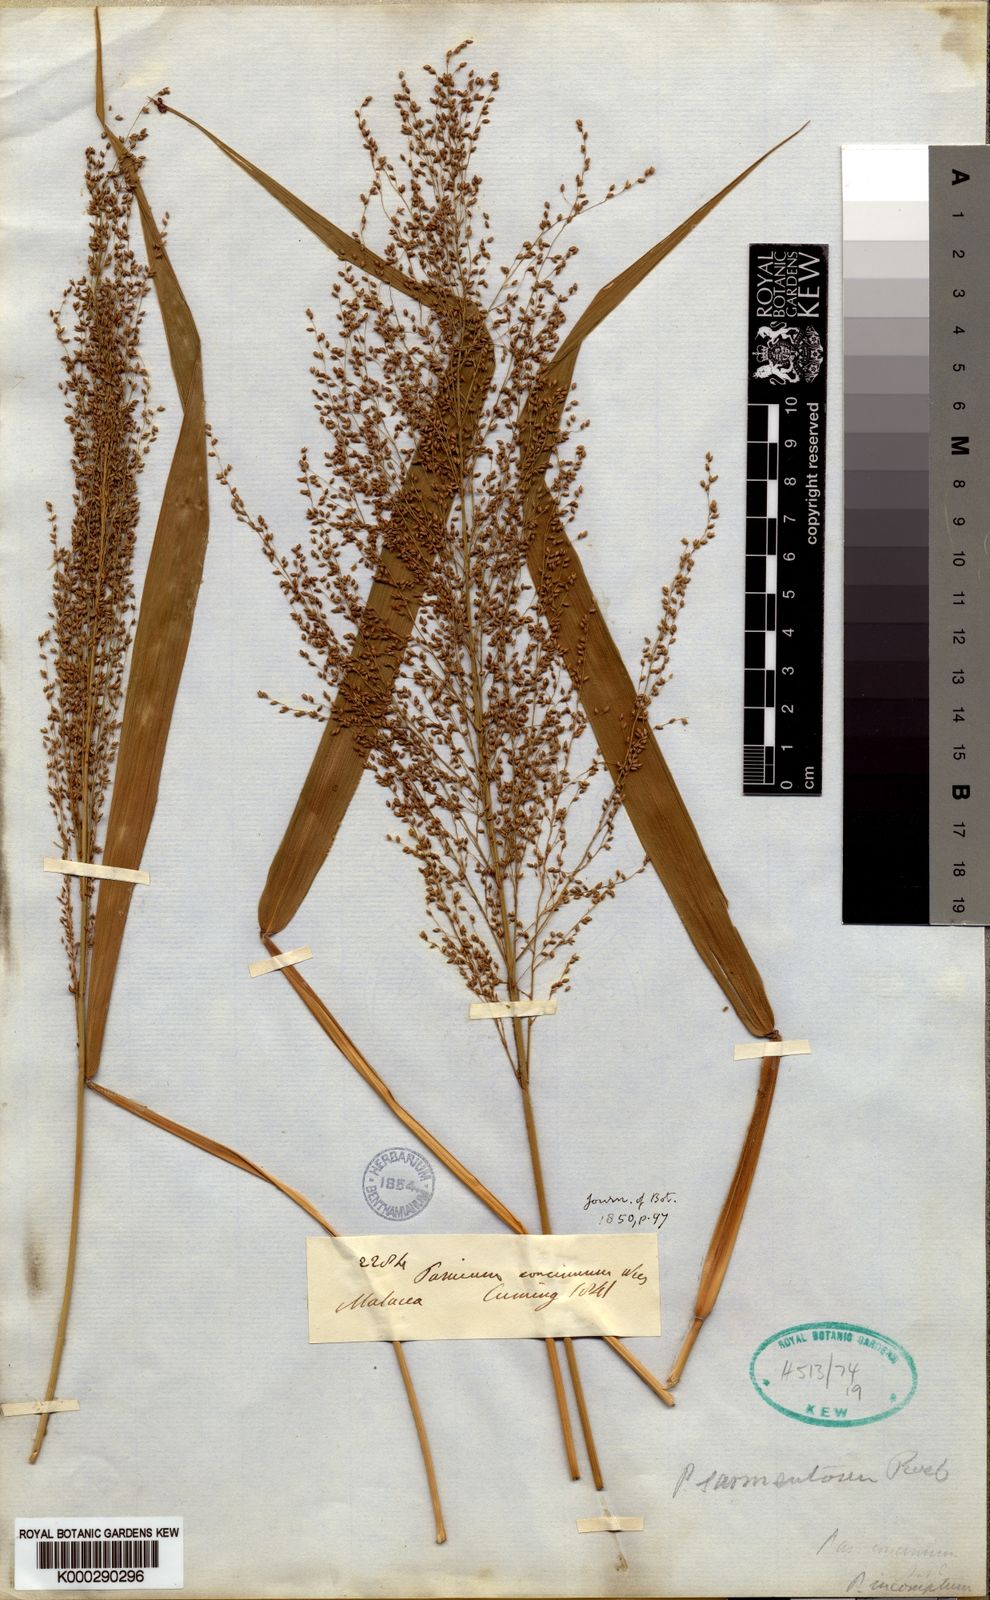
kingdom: Plantae
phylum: Tracheophyta
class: Liliopsida
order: Poales
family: Poaceae
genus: Panicum
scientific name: Panicum sarmentosum
